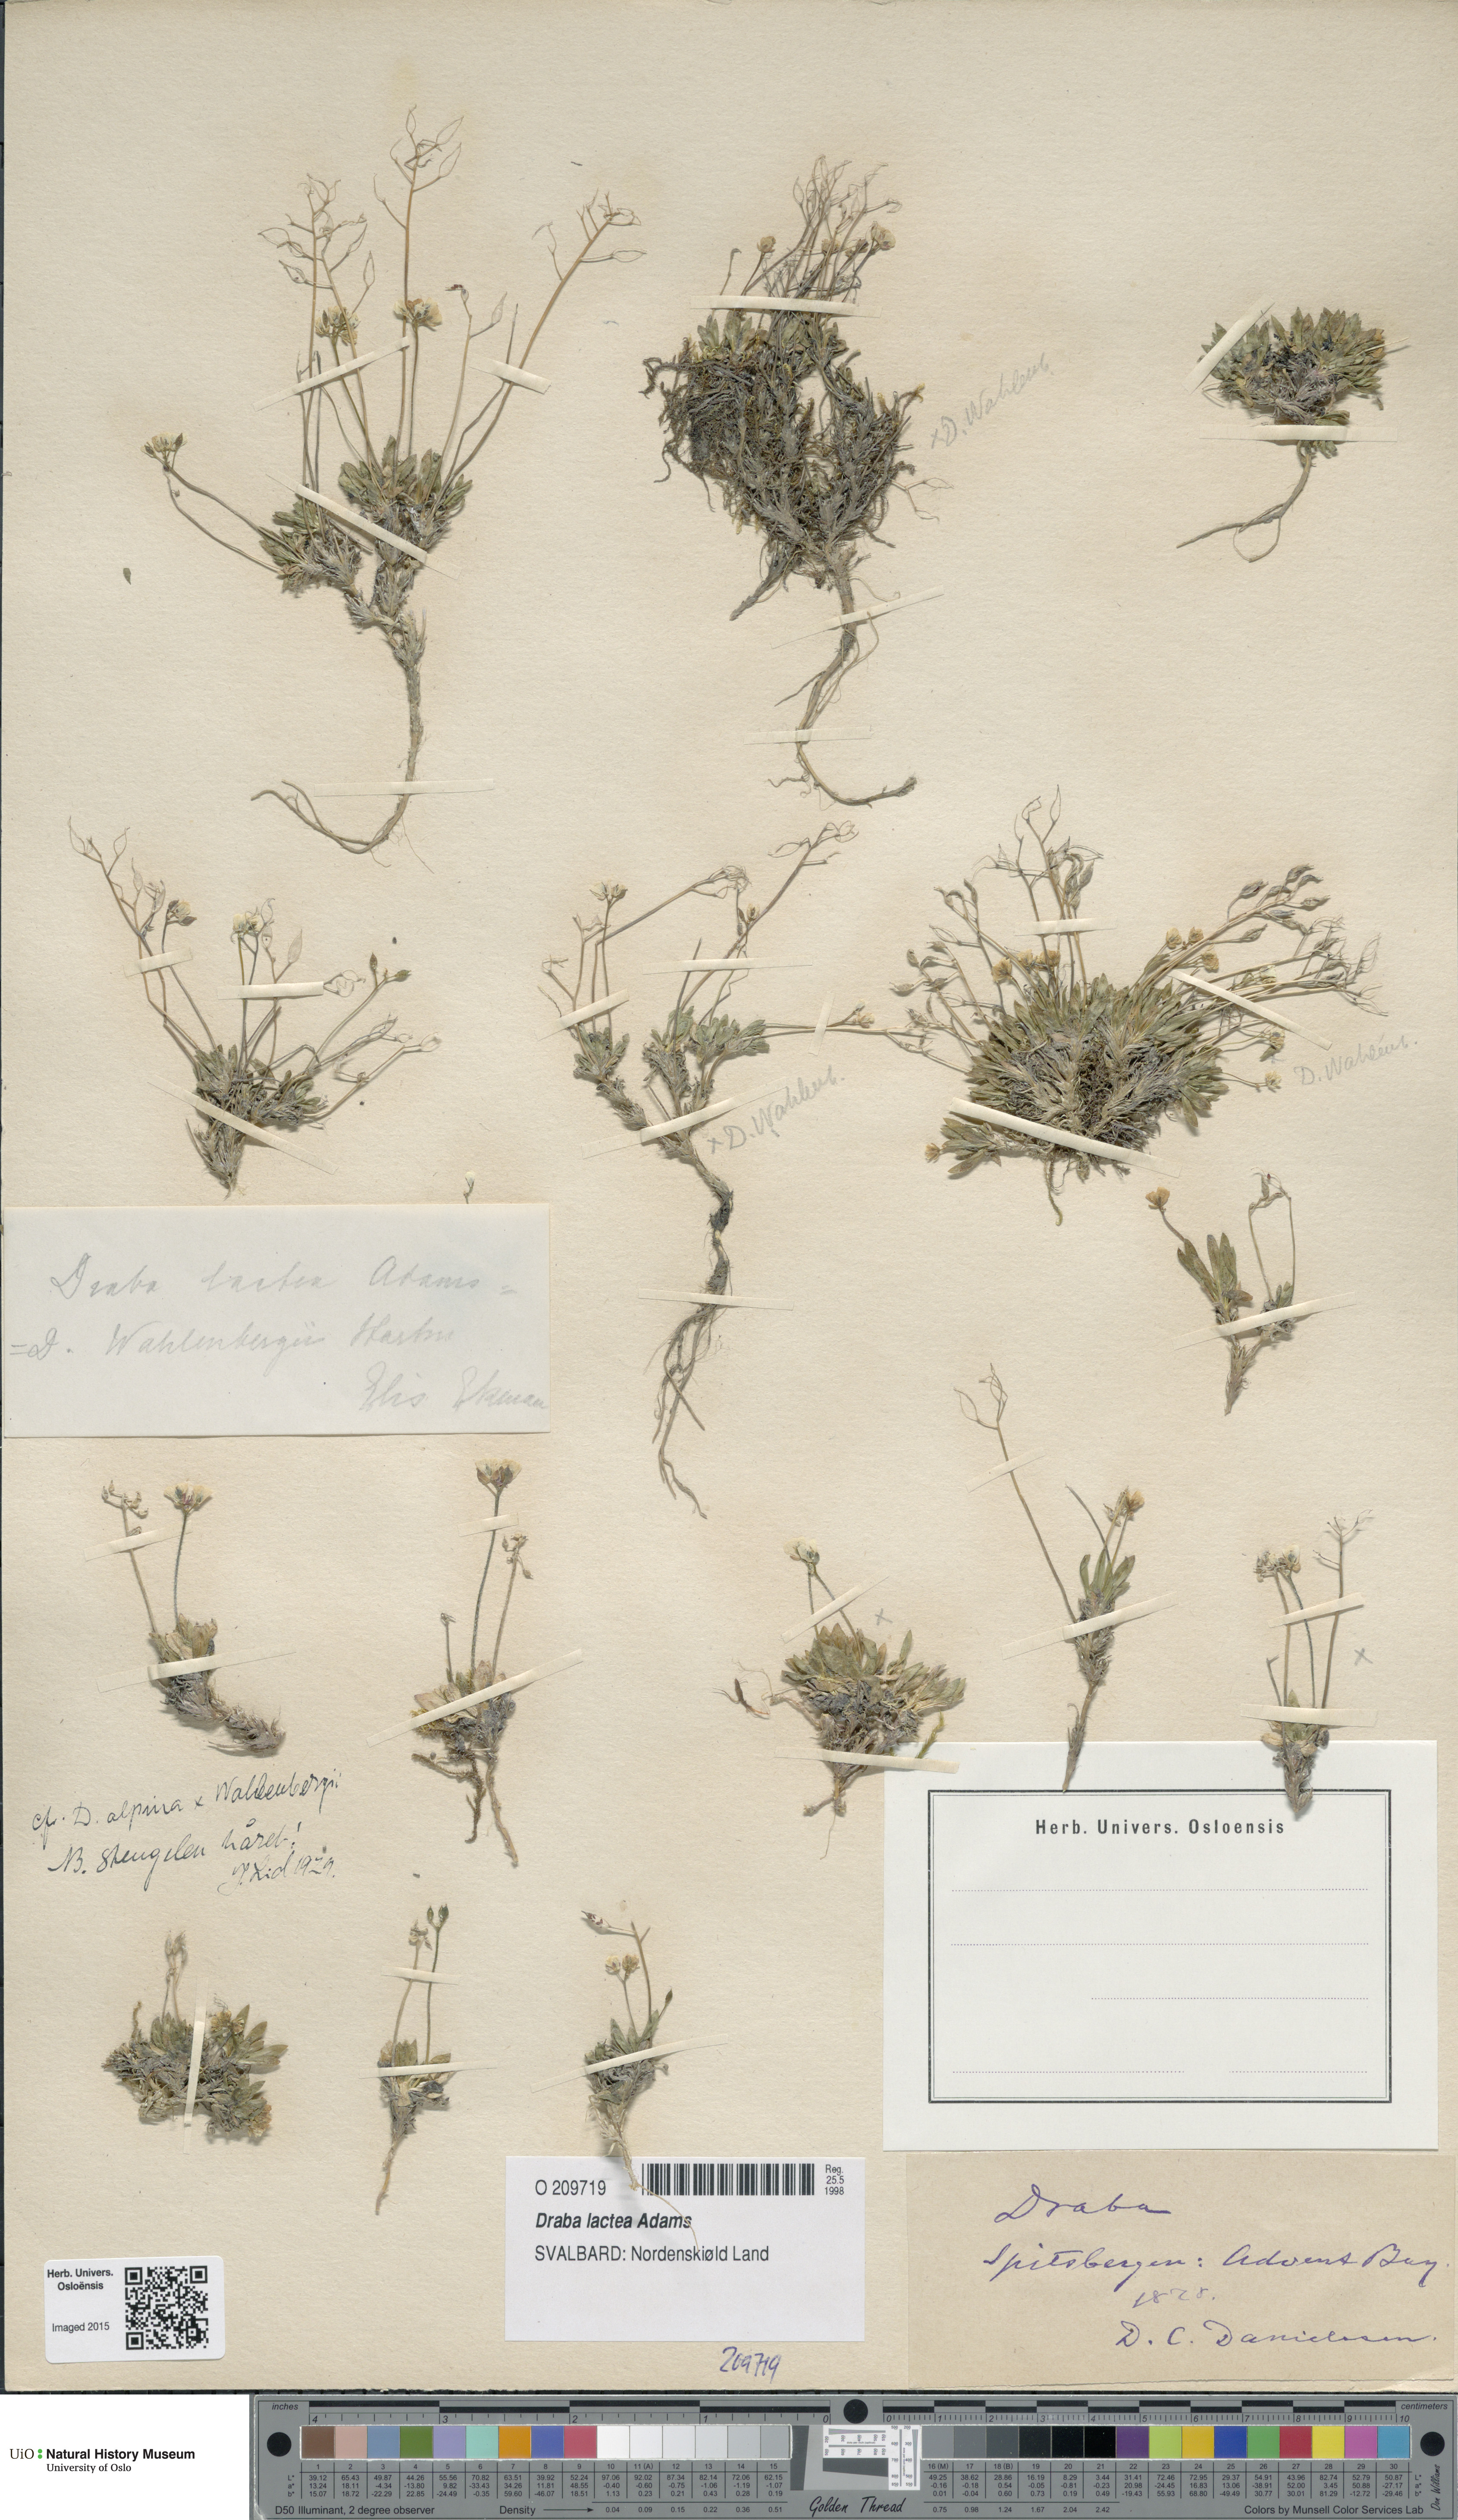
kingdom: Plantae
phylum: Tracheophyta
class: Magnoliopsida
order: Brassicales
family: Brassicaceae
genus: Draba
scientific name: Draba lactea
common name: Milky draba
